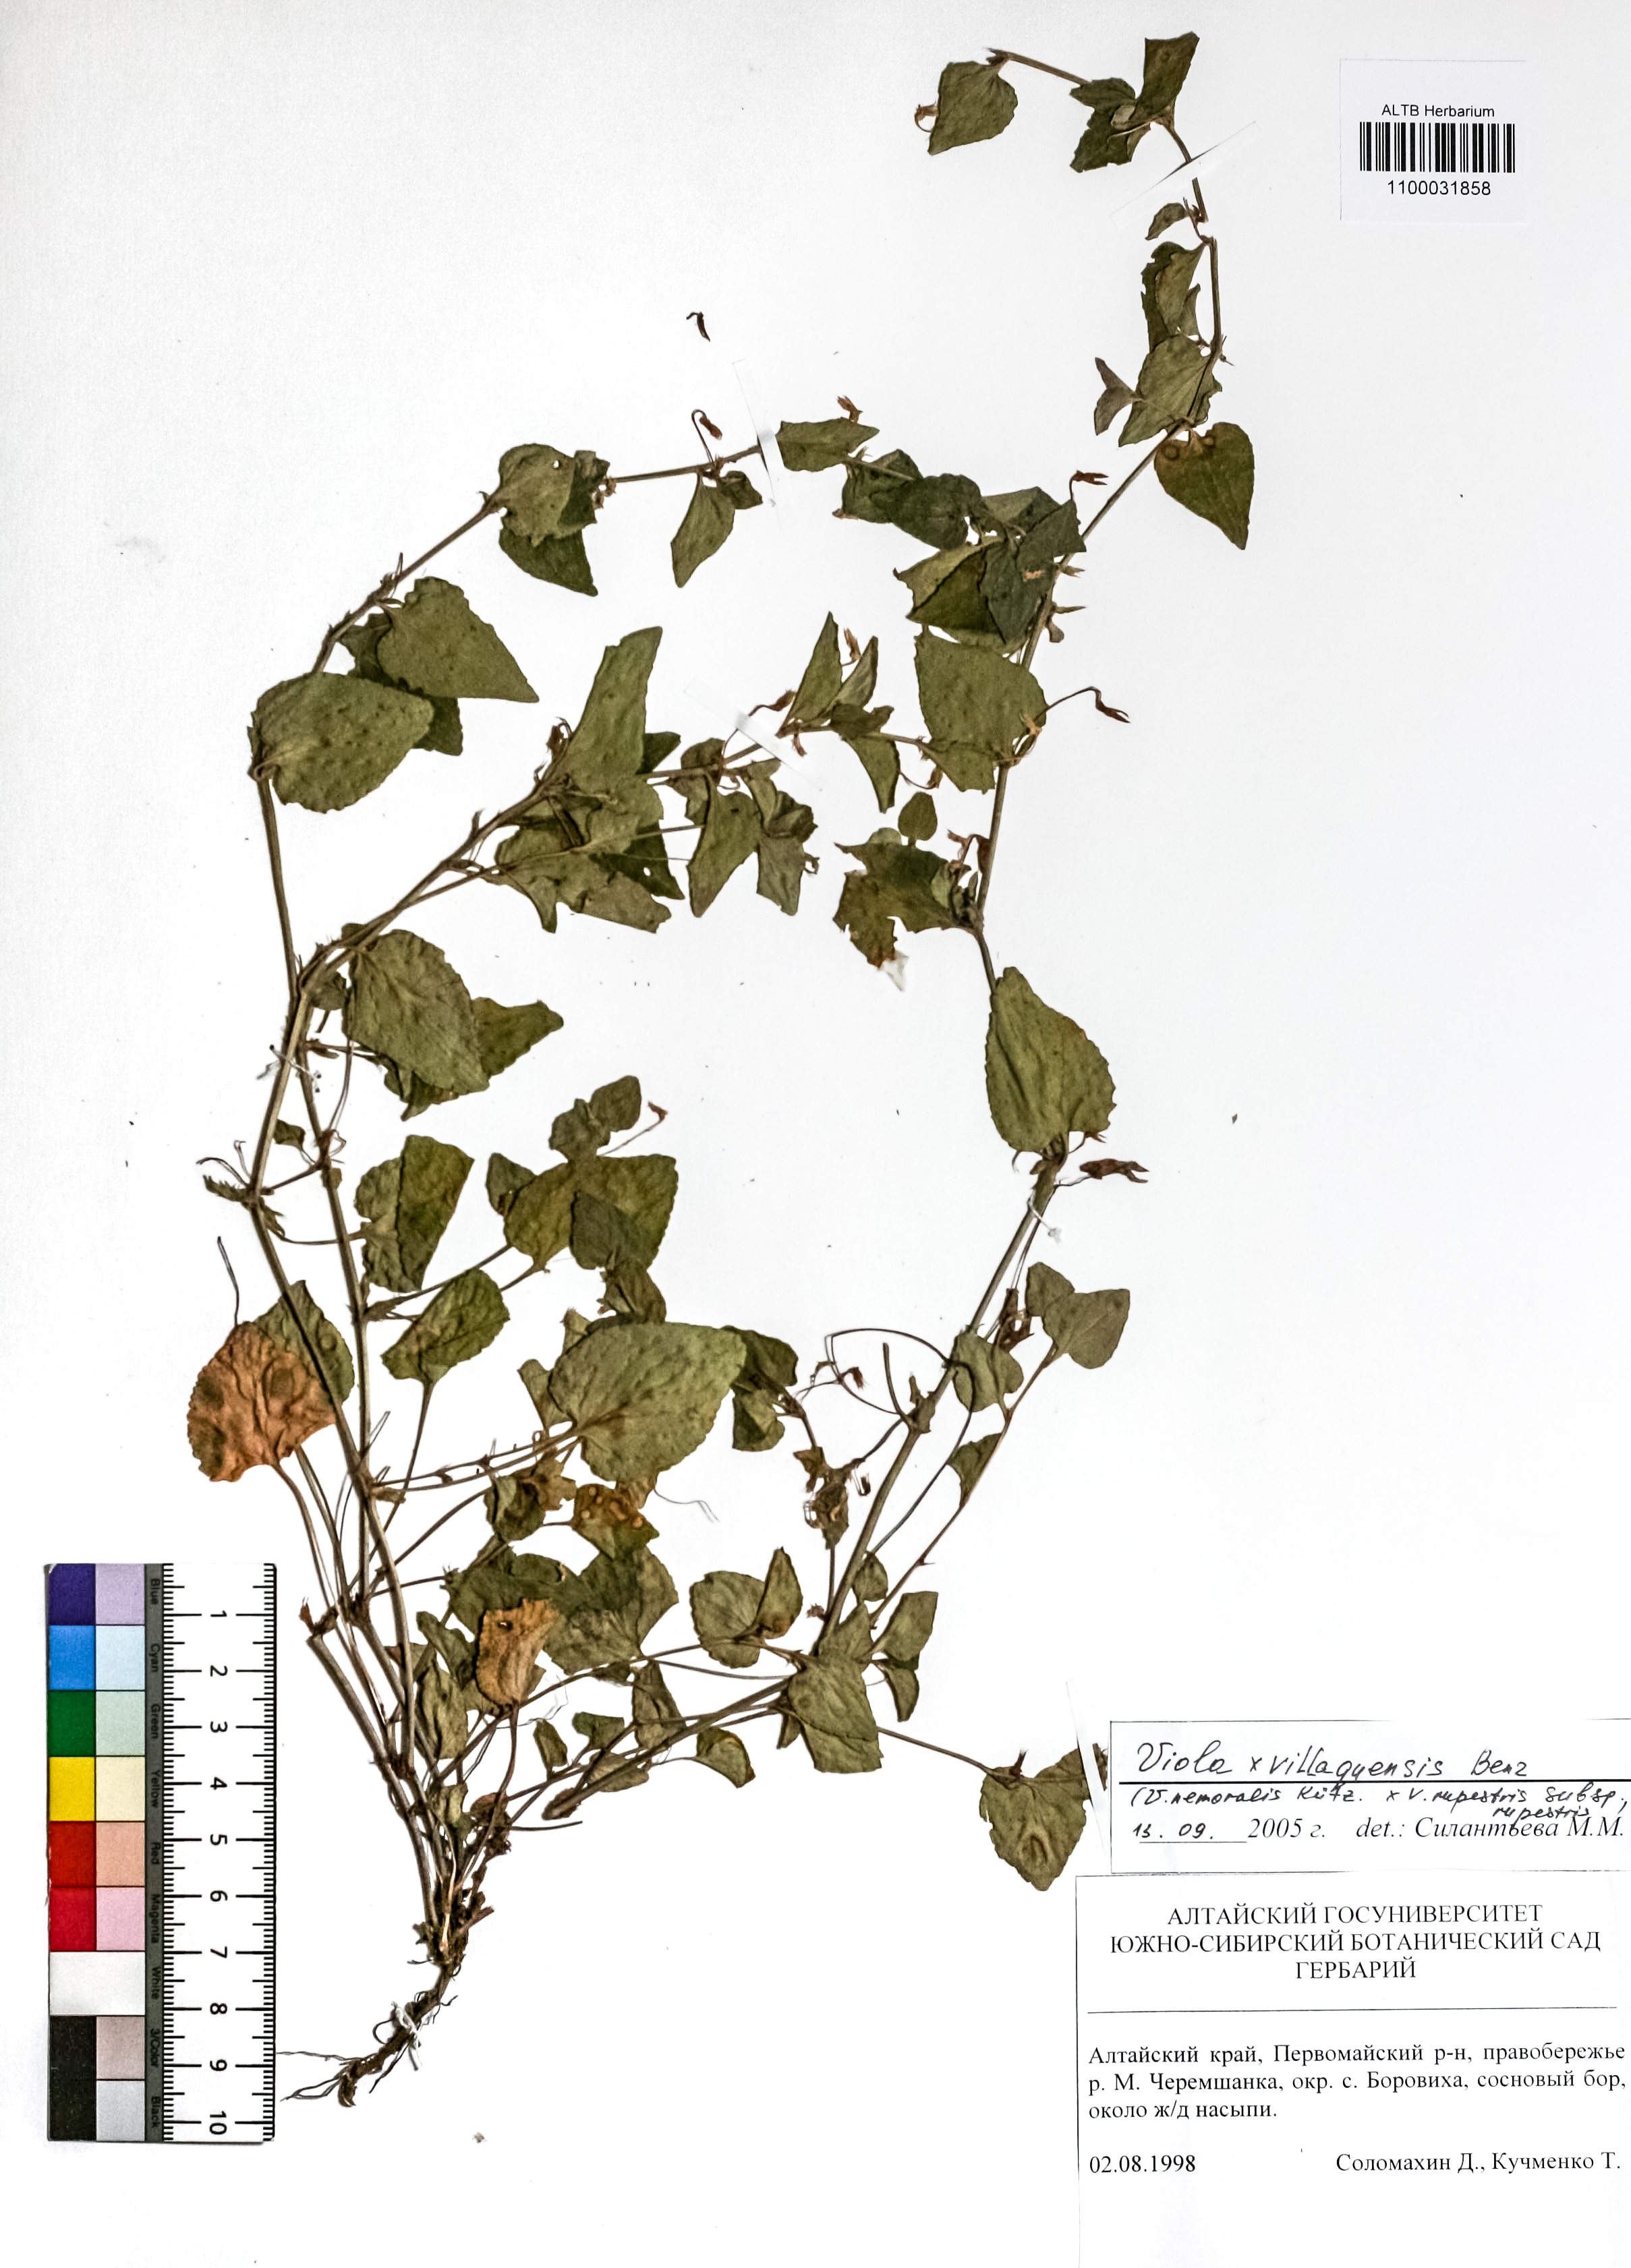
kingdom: Plantae
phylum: Tracheophyta
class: Magnoliopsida
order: Malpighiales
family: Violaceae
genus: Viola
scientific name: Viola villaquensis
